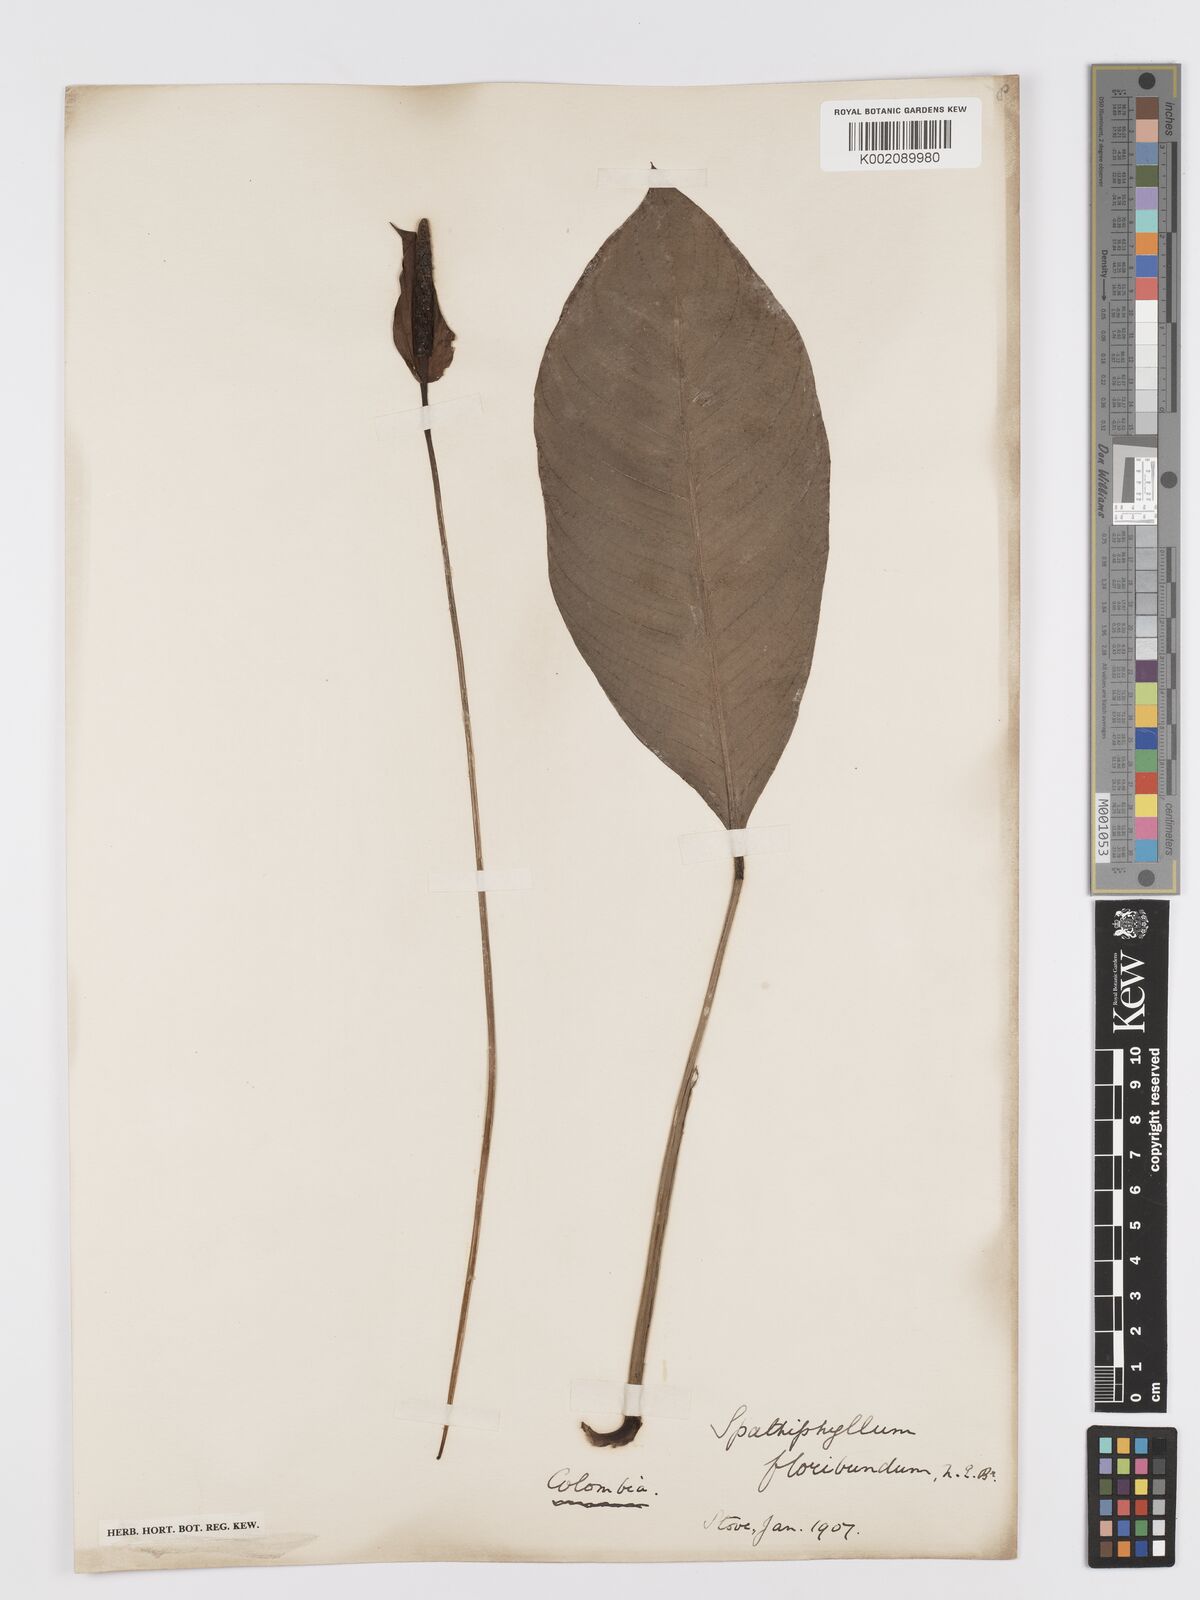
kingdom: Plantae
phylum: Tracheophyta
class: Liliopsida
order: Alismatales
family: Araceae
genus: Spathiphyllum
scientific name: Spathiphyllum floribundum
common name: Peace-lily
